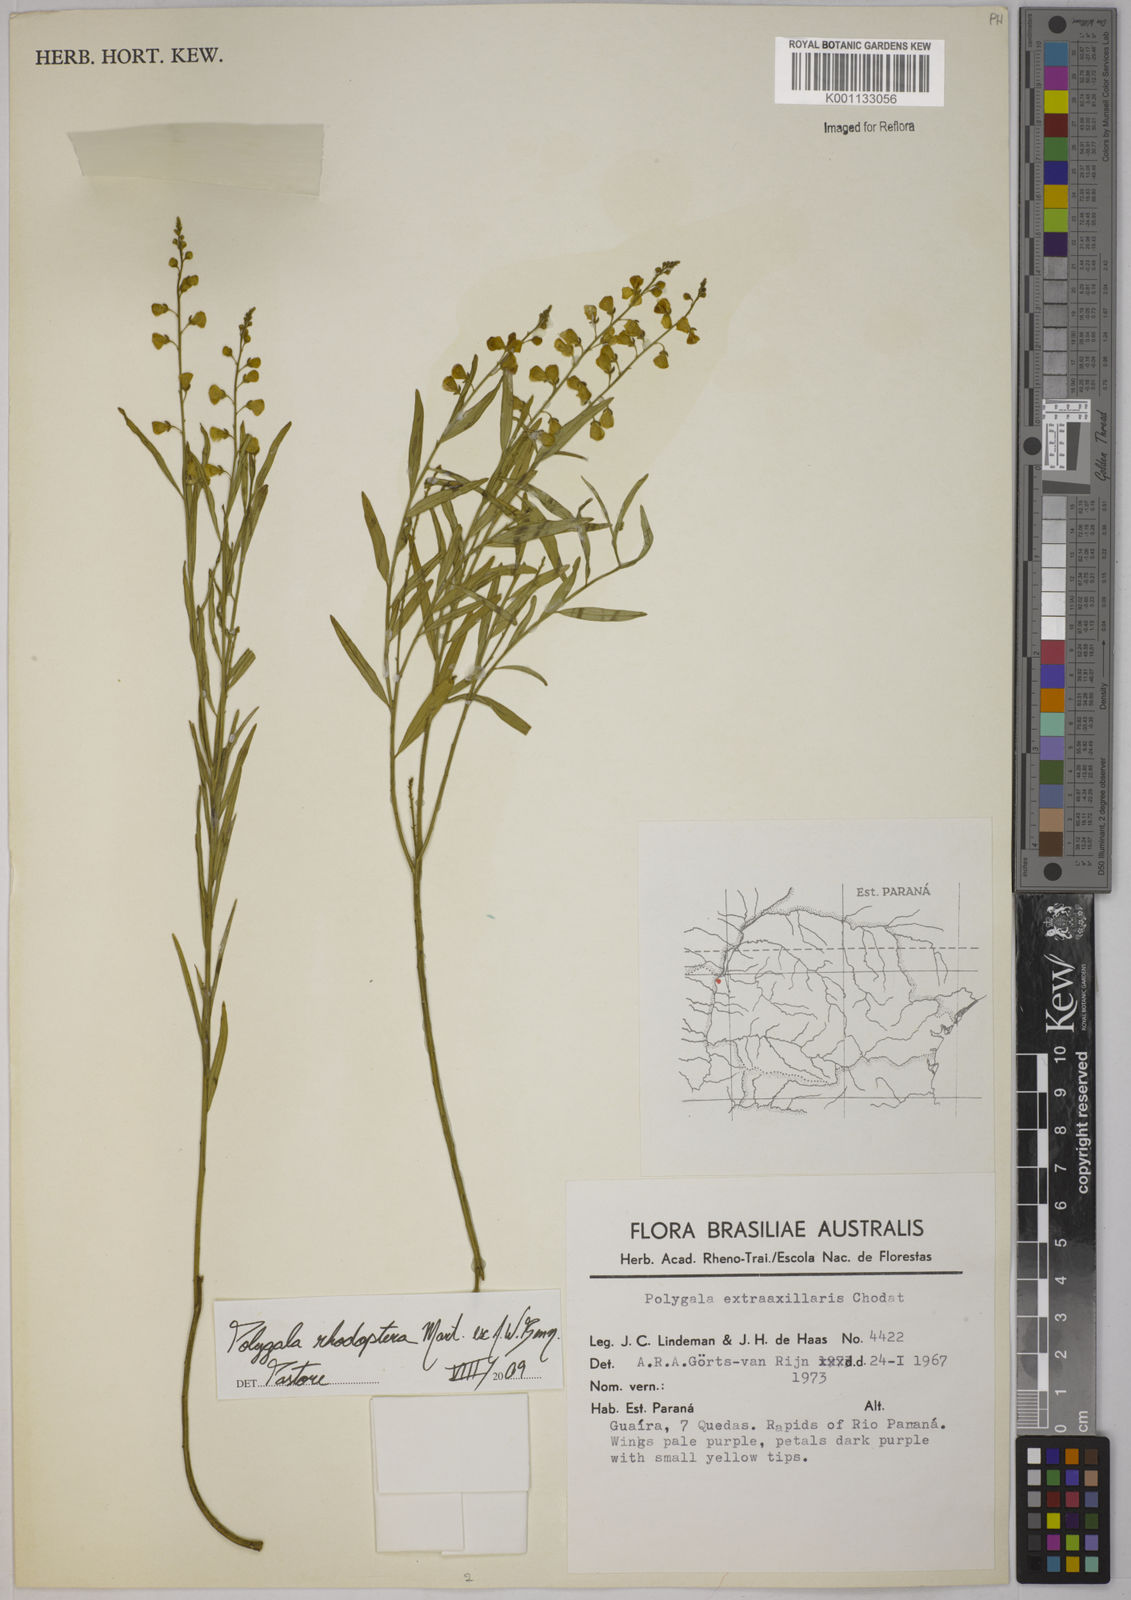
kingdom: Plantae
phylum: Tracheophyta
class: Magnoliopsida
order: Fabales
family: Polygalaceae
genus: Asemeia
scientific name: Asemeia rhodoptera
